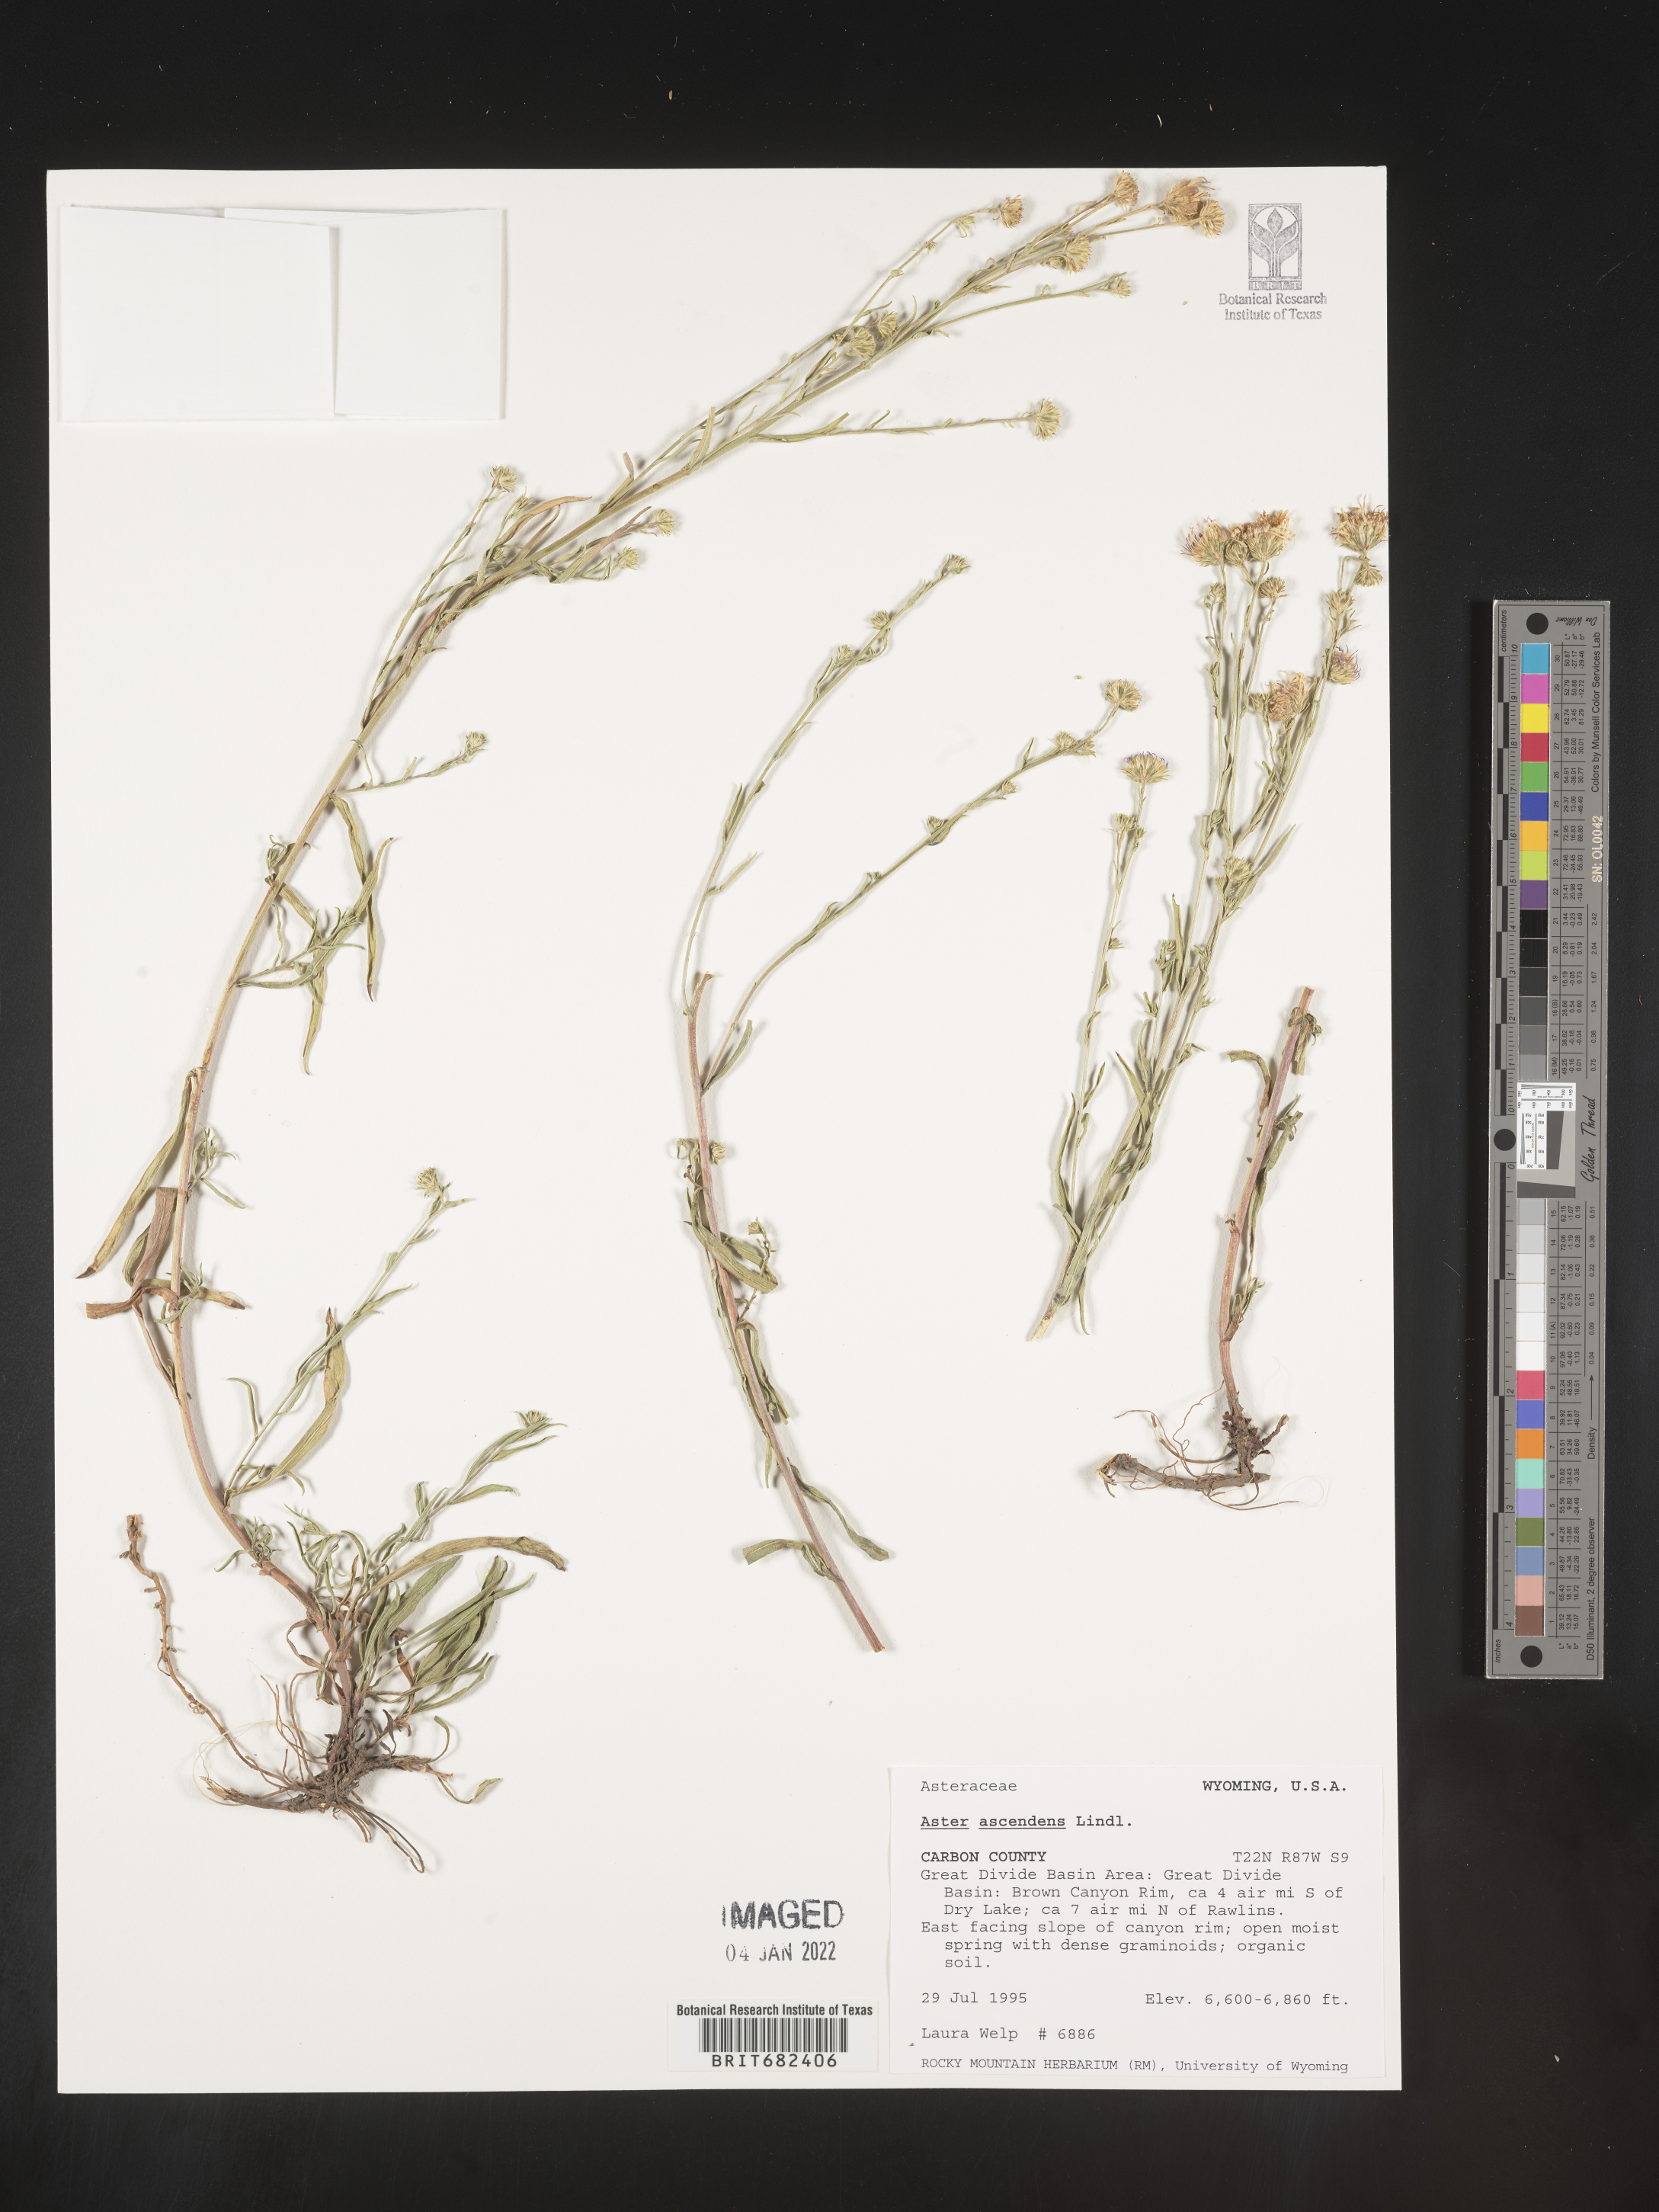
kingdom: Plantae
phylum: Tracheophyta
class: Magnoliopsida
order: Asterales
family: Asteraceae
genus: Aster
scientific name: Aster
